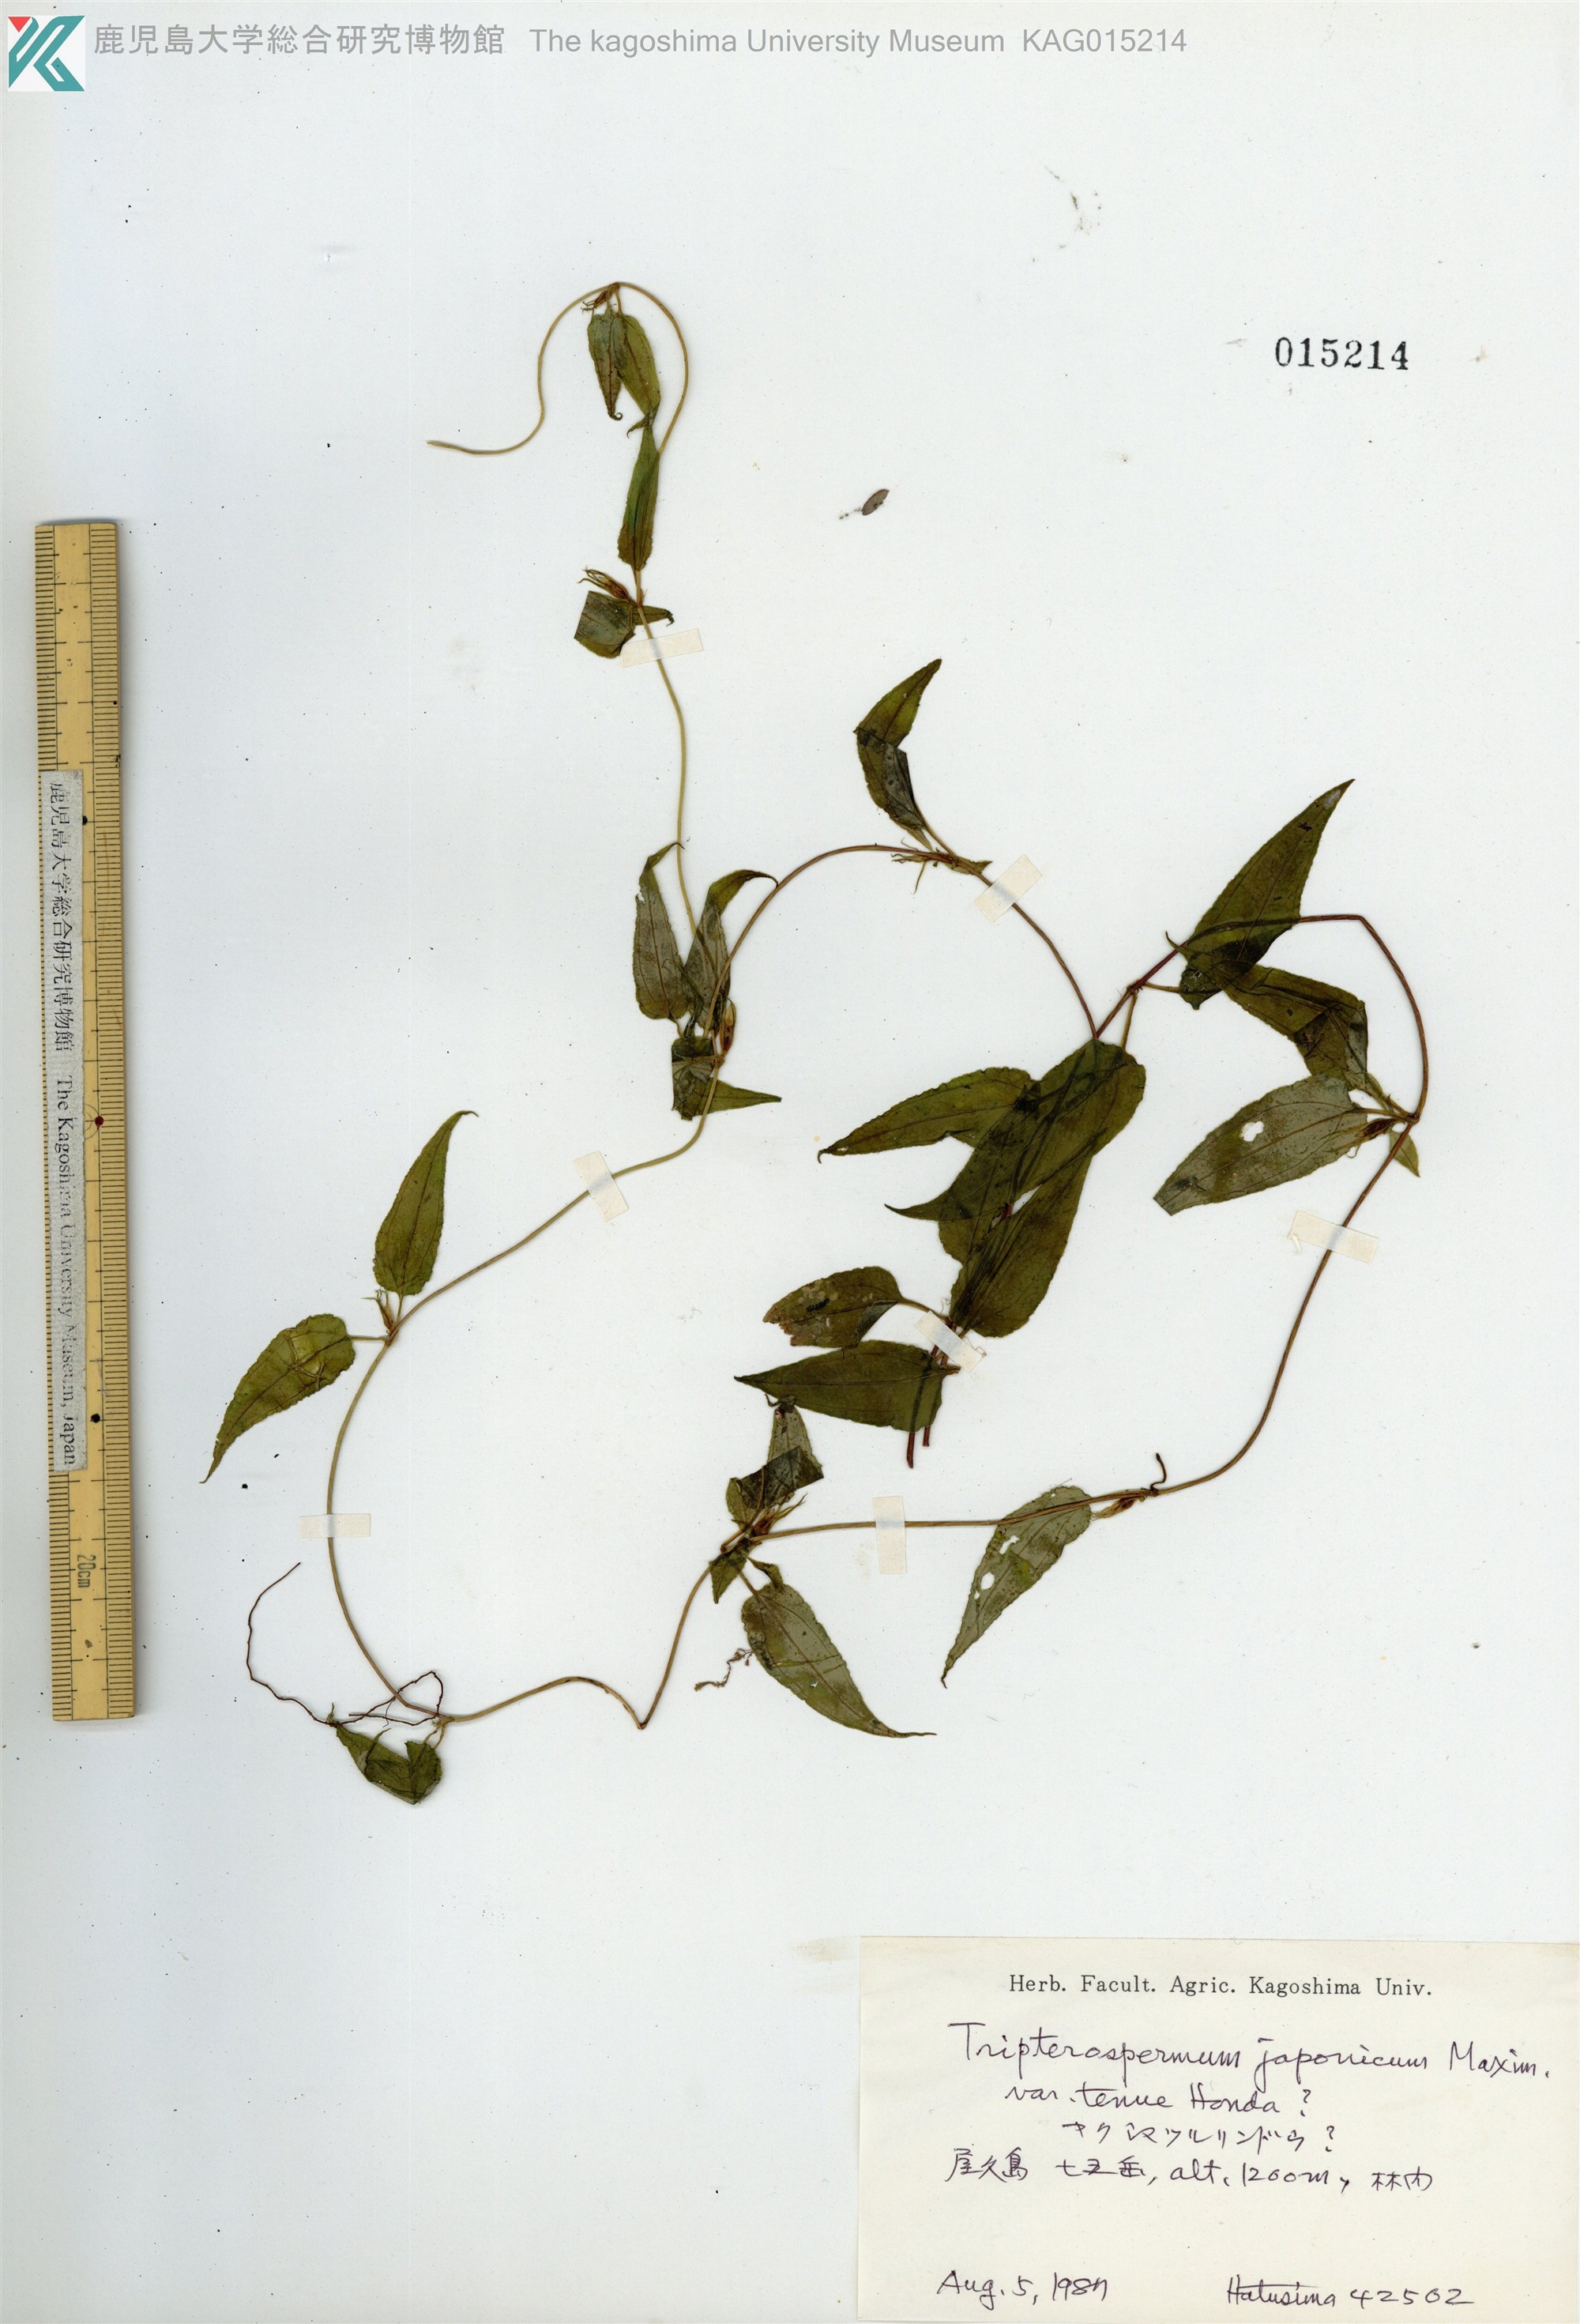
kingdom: Plantae
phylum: Tracheophyta
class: Magnoliopsida
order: Gentianales
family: Gentianaceae
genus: Tripterospermum
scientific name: Tripterospermum distylum
